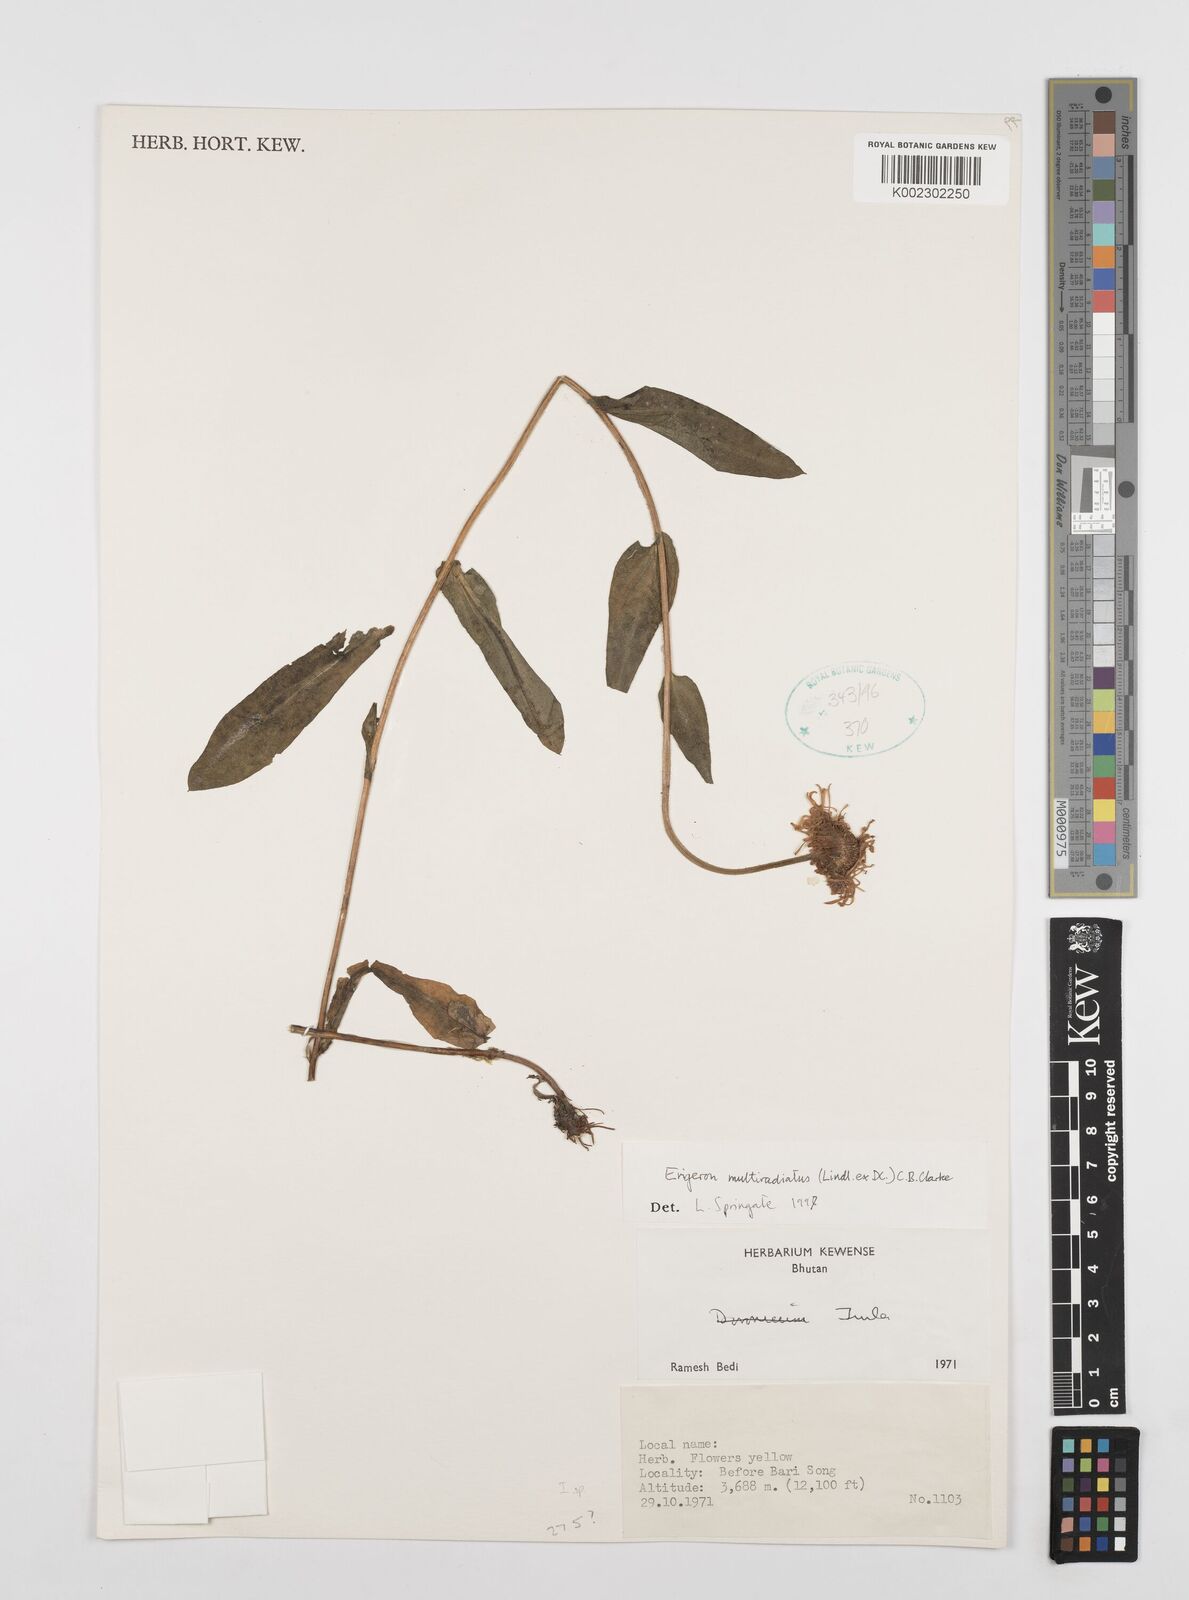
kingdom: Plantae
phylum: Tracheophyta
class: Magnoliopsida
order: Asterales
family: Asteraceae
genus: Erigeron
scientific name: Erigeron multiradiatus
